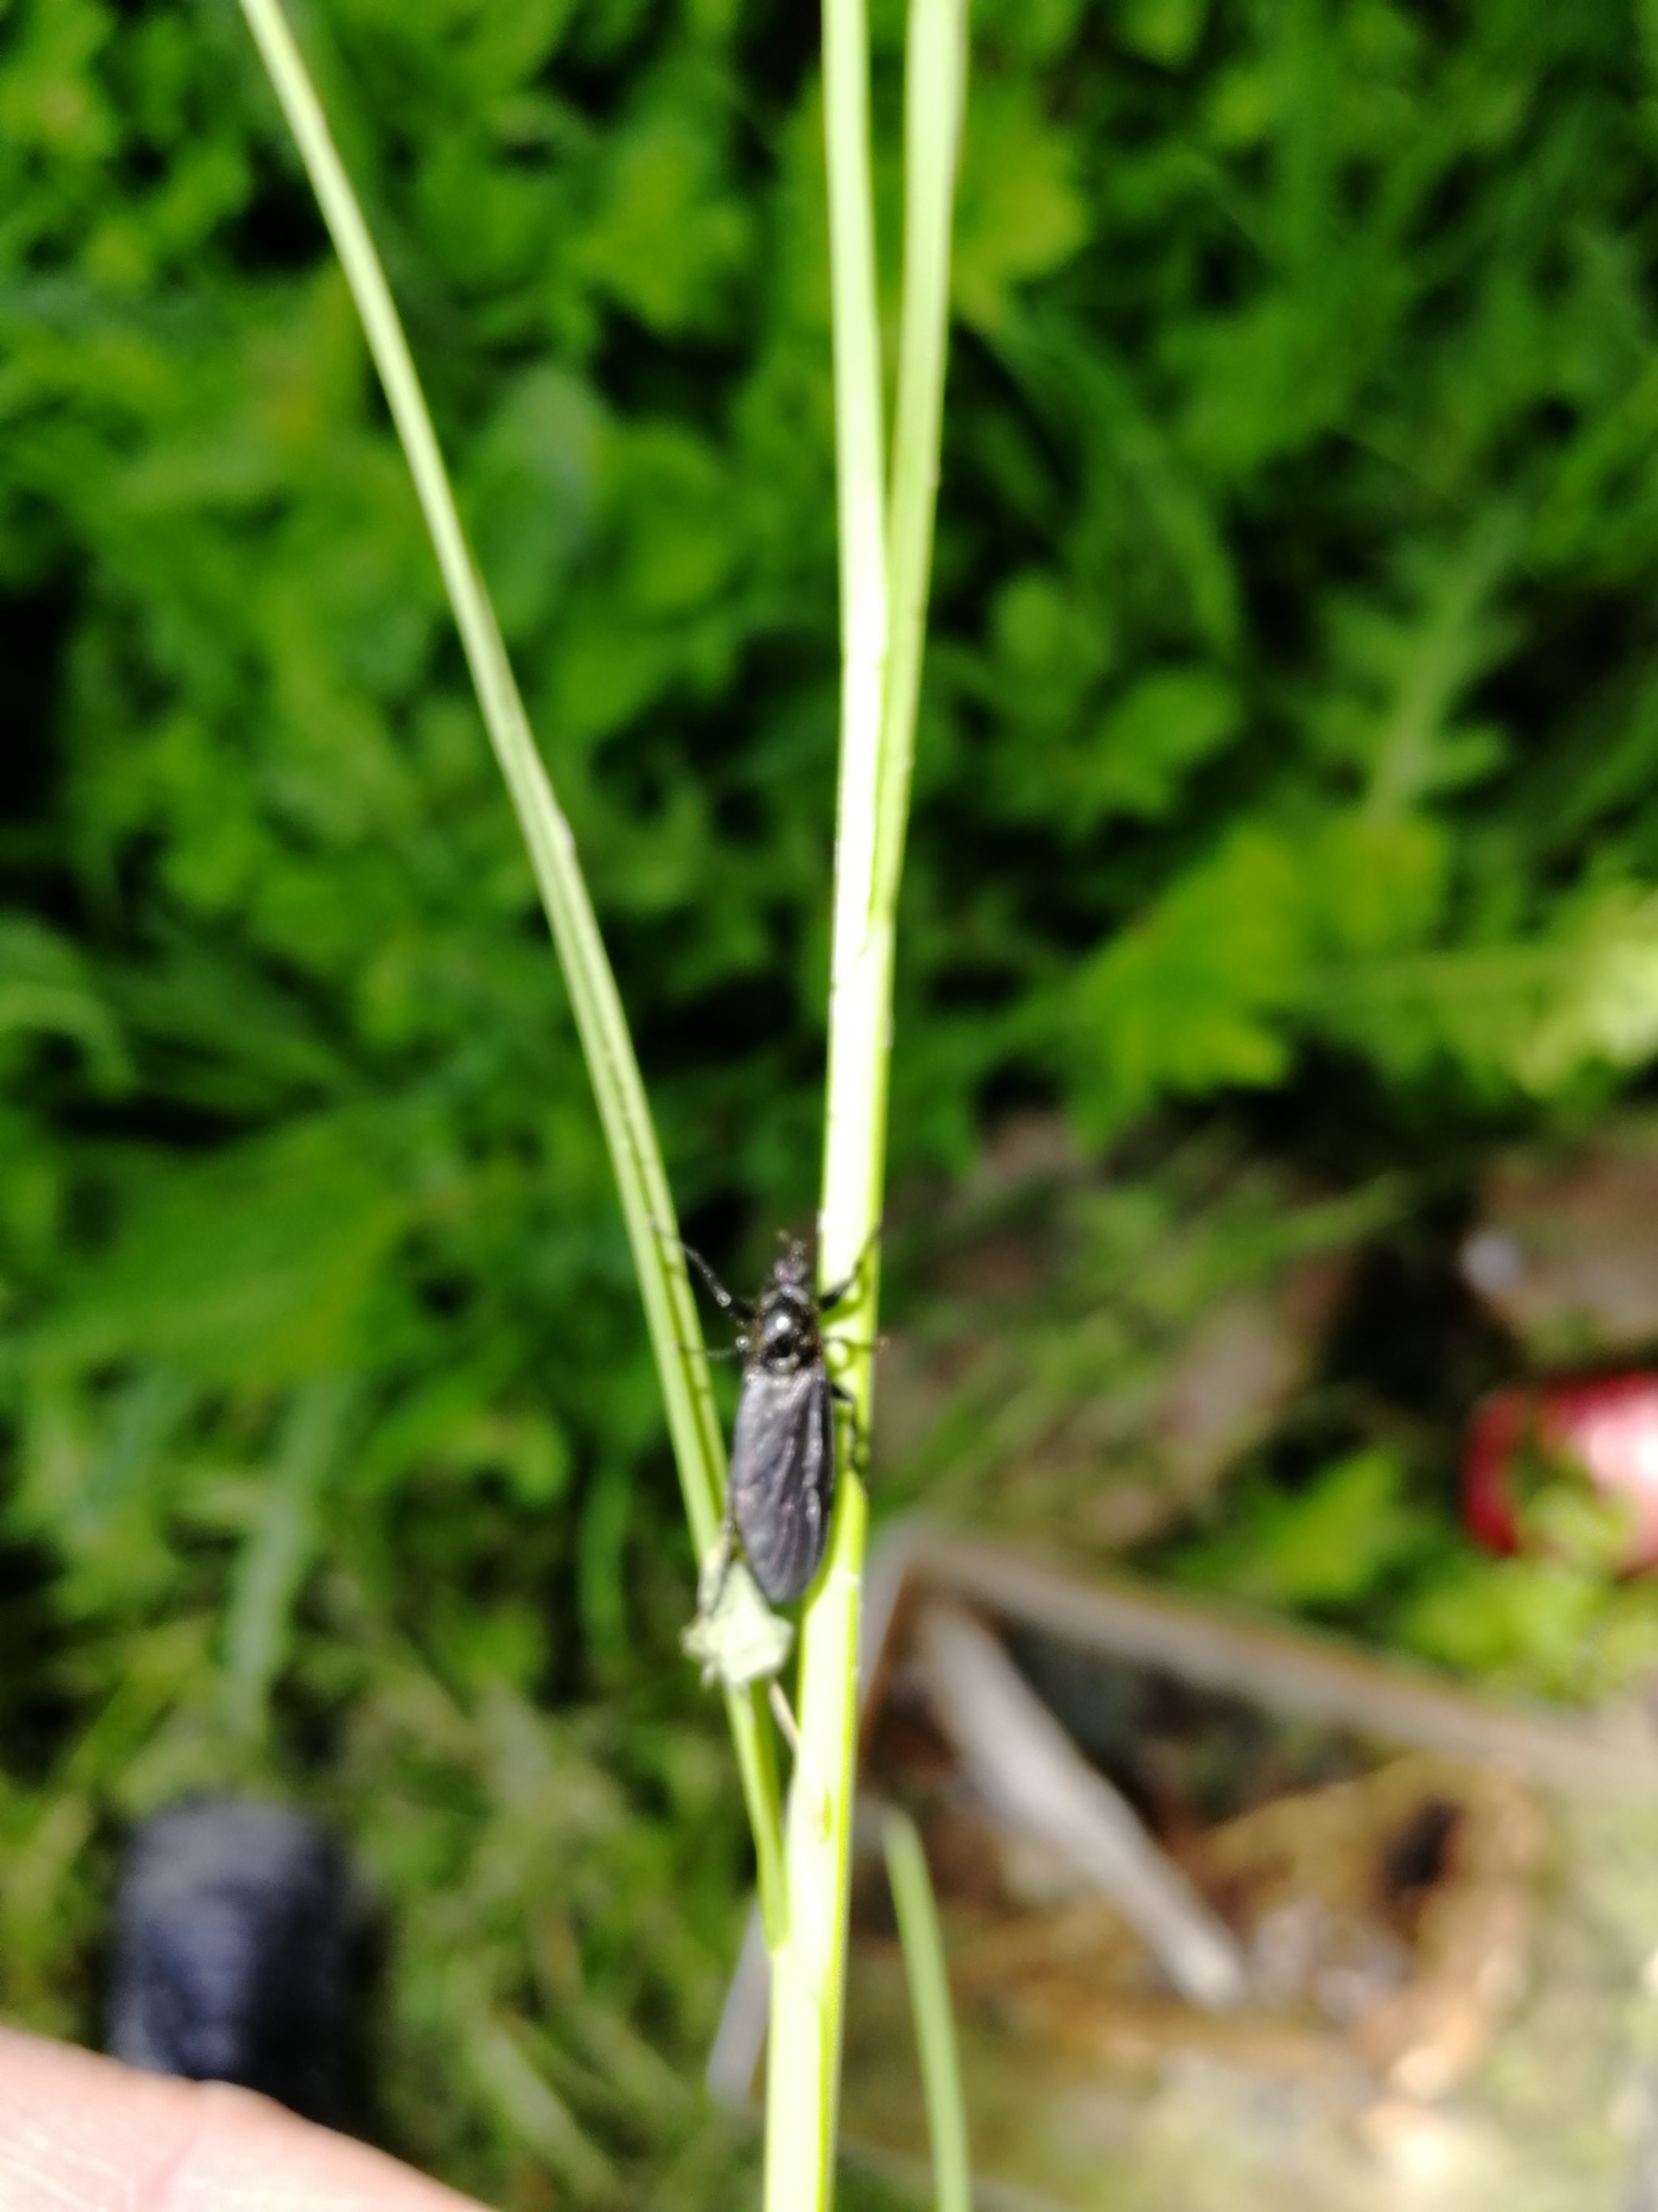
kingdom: Animalia
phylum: Arthropoda
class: Insecta
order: Diptera
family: Bibionidae
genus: Bibio
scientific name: Bibio
